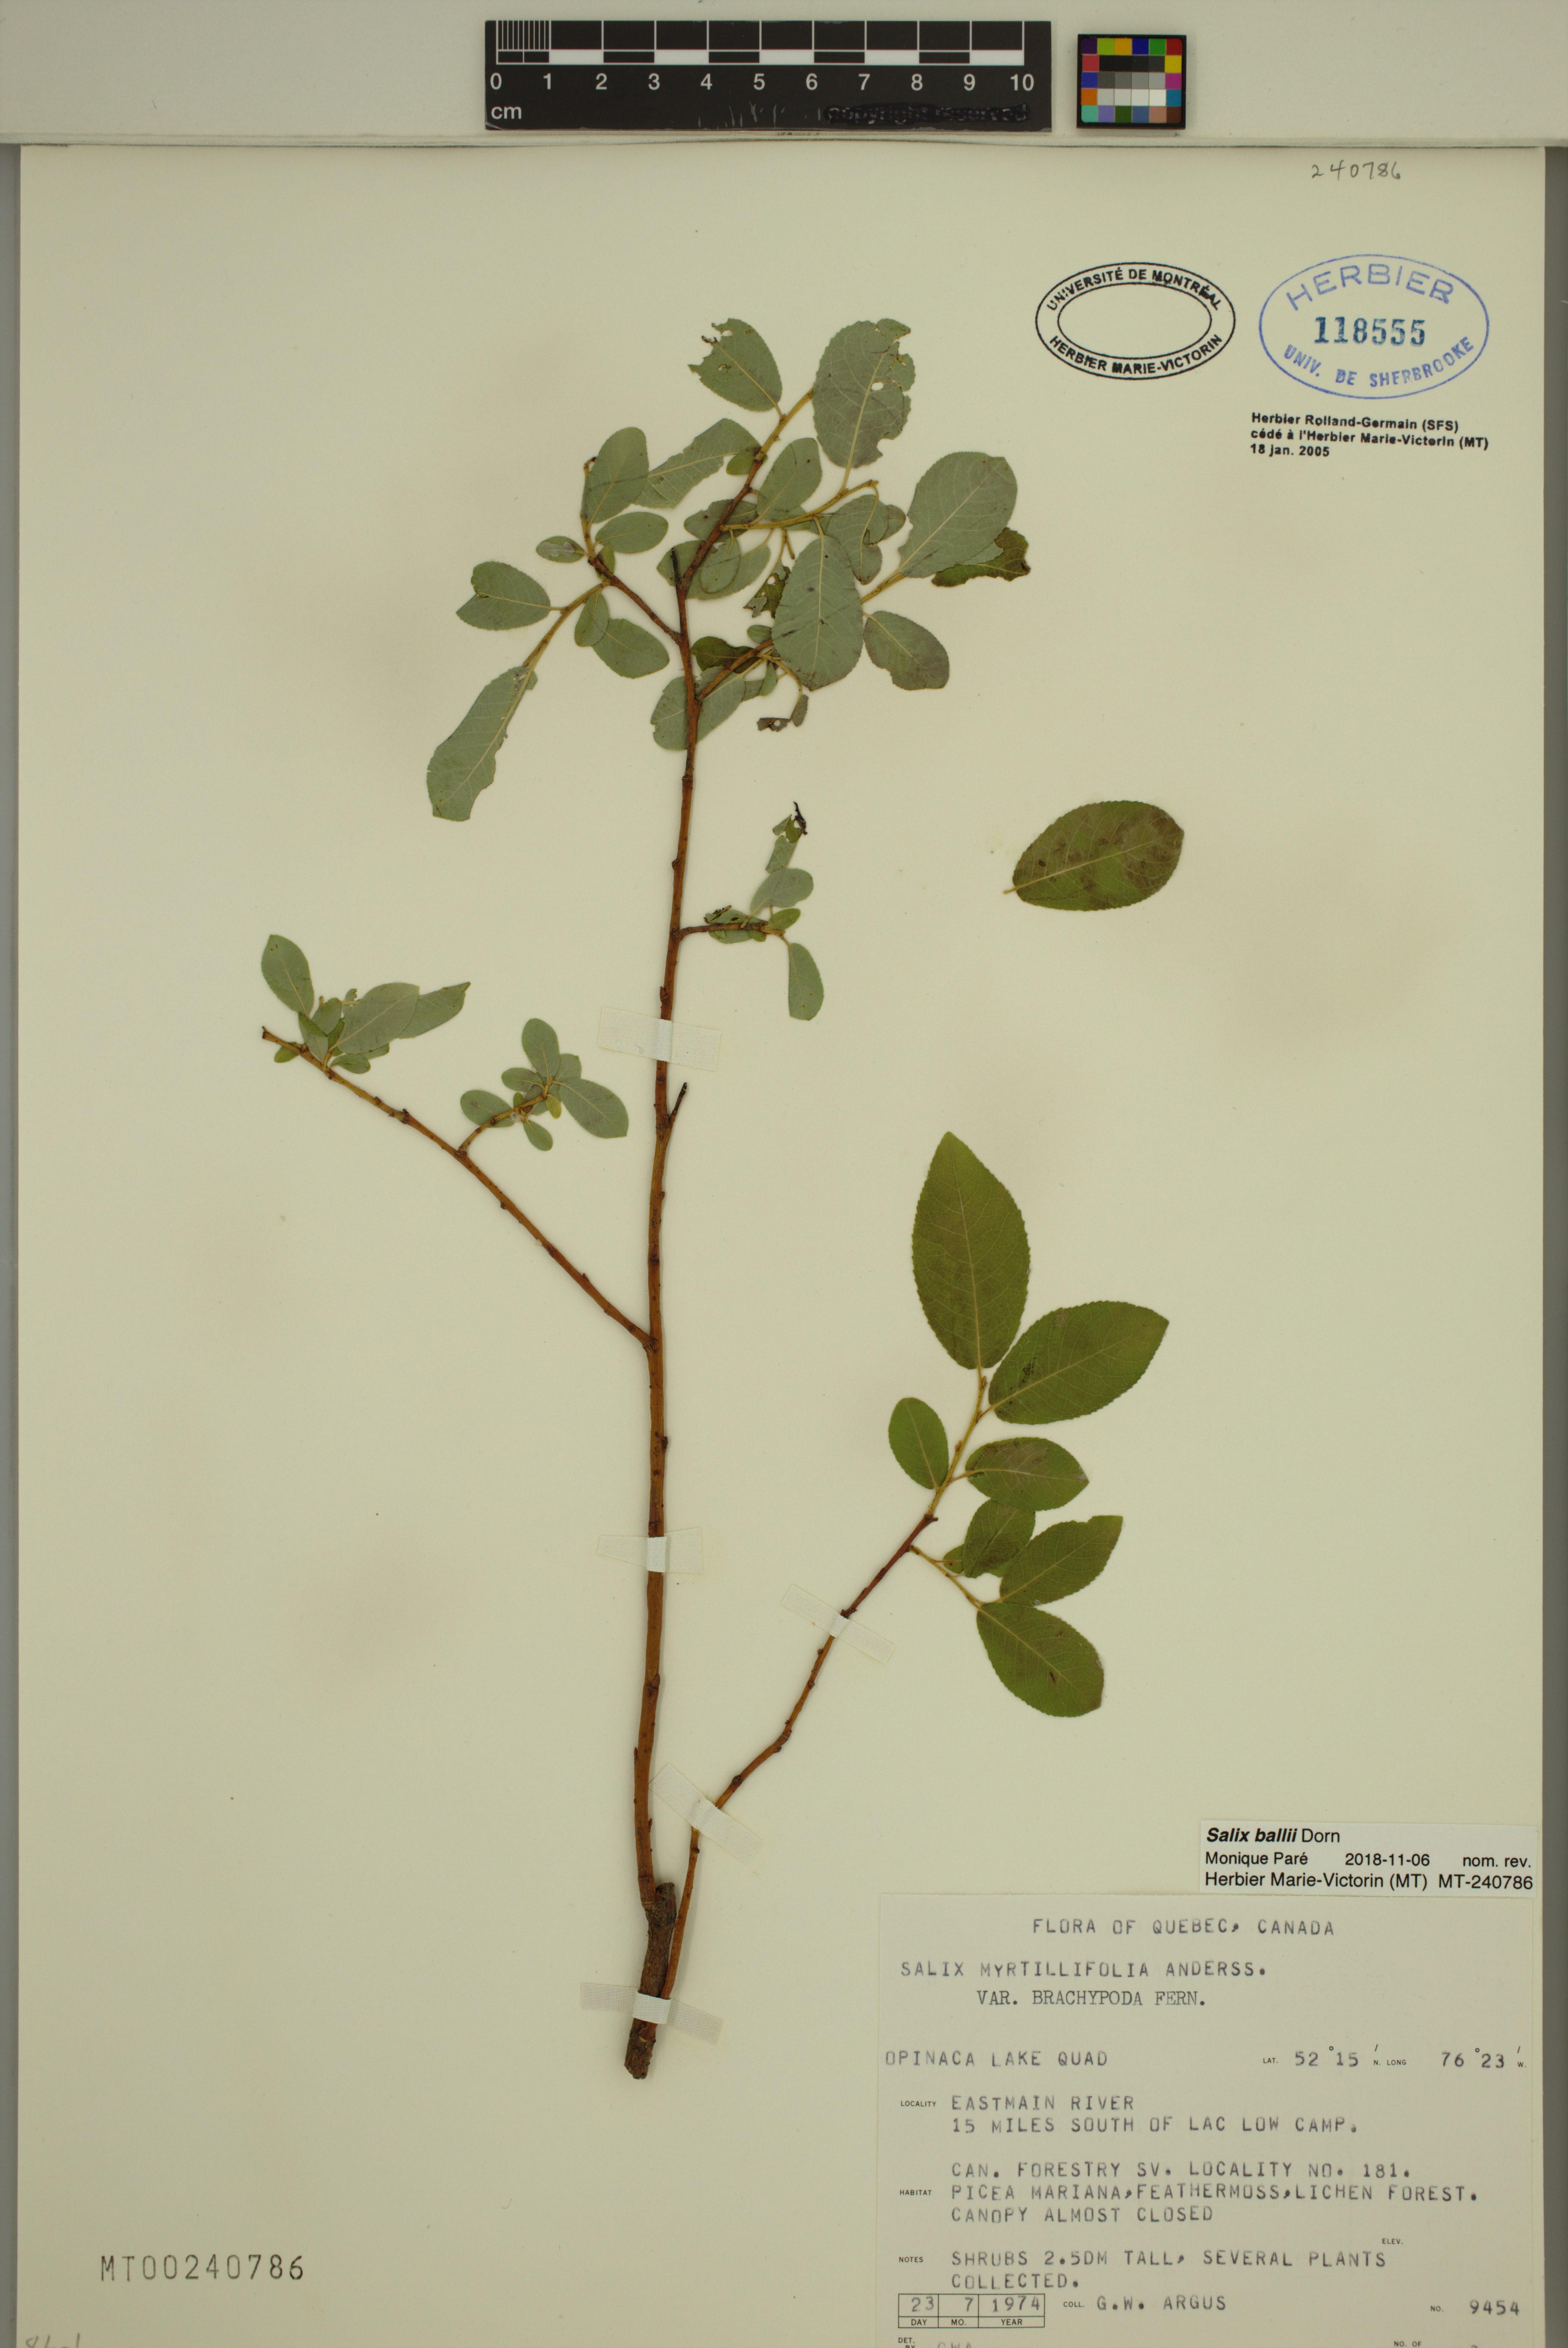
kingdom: Plantae
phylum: Tracheophyta
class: Magnoliopsida
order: Malpighiales
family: Salicaceae
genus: Salix
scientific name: Salix ballii
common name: Ball's willow
